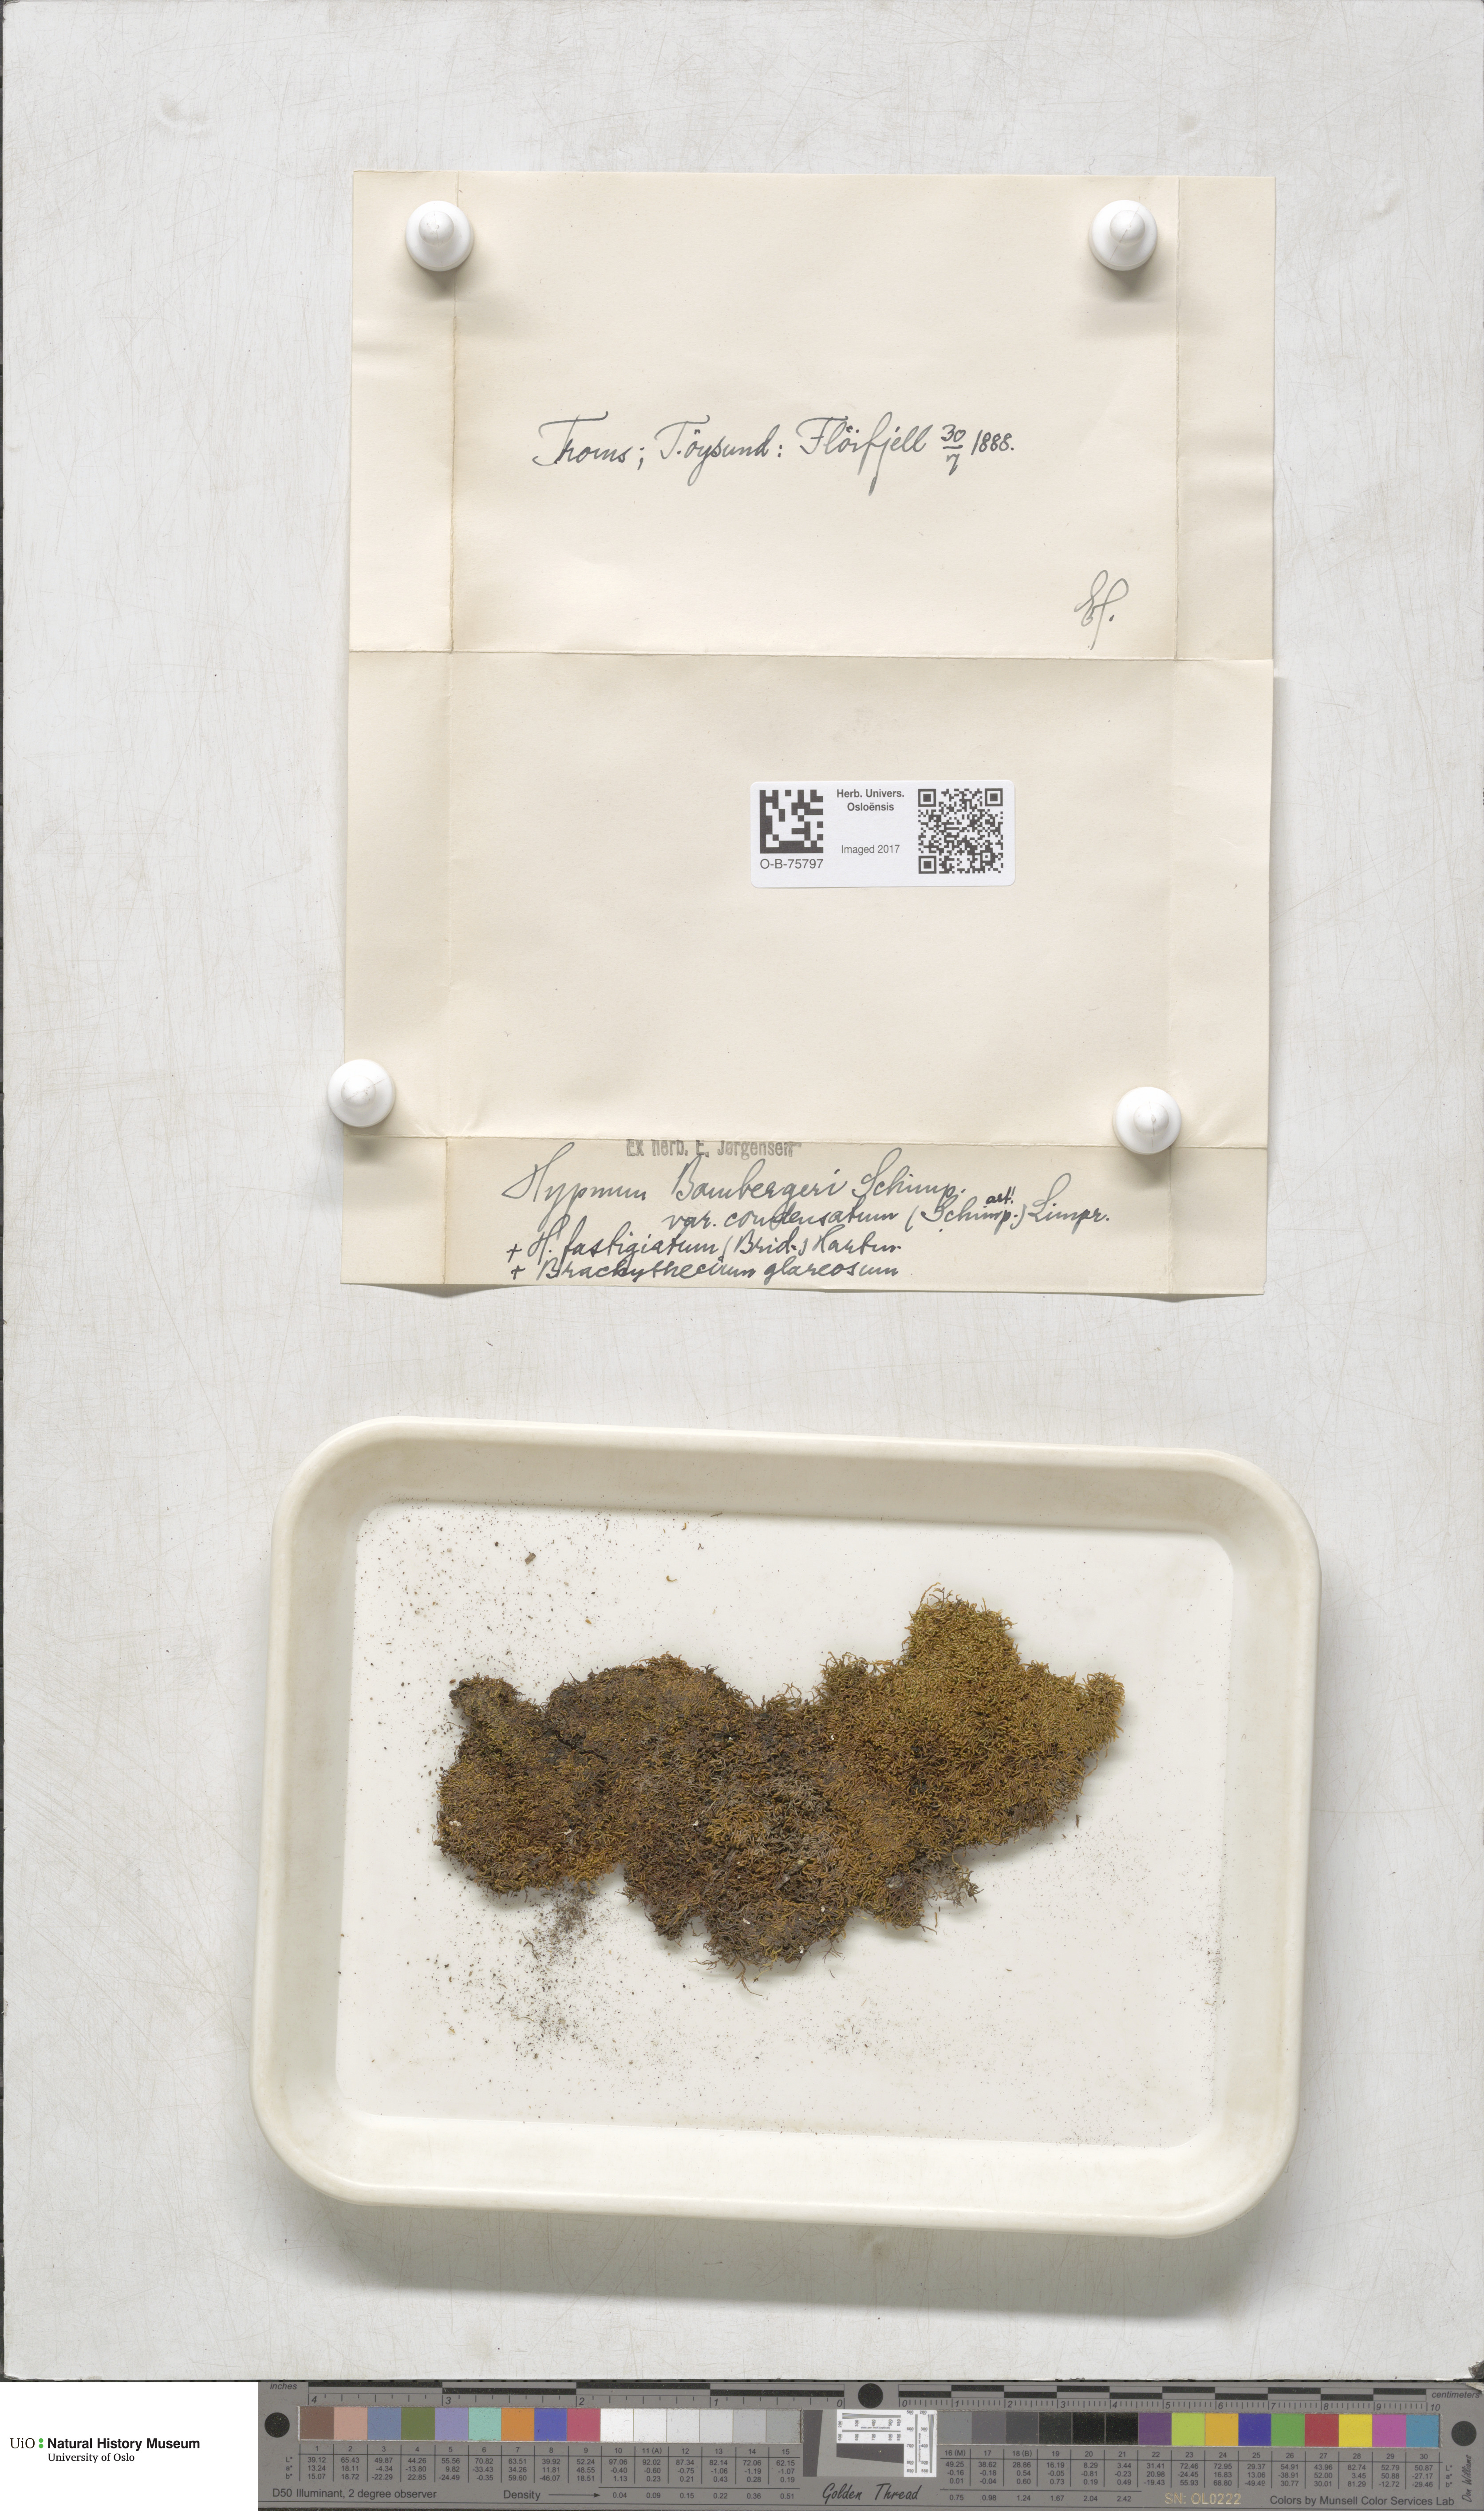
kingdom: Plantae
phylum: Bryophyta
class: Bryopsida
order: Hypnales
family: Amblystegiaceae
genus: Campylium
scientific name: Campylium bambergeri
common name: Golden plait-moss
